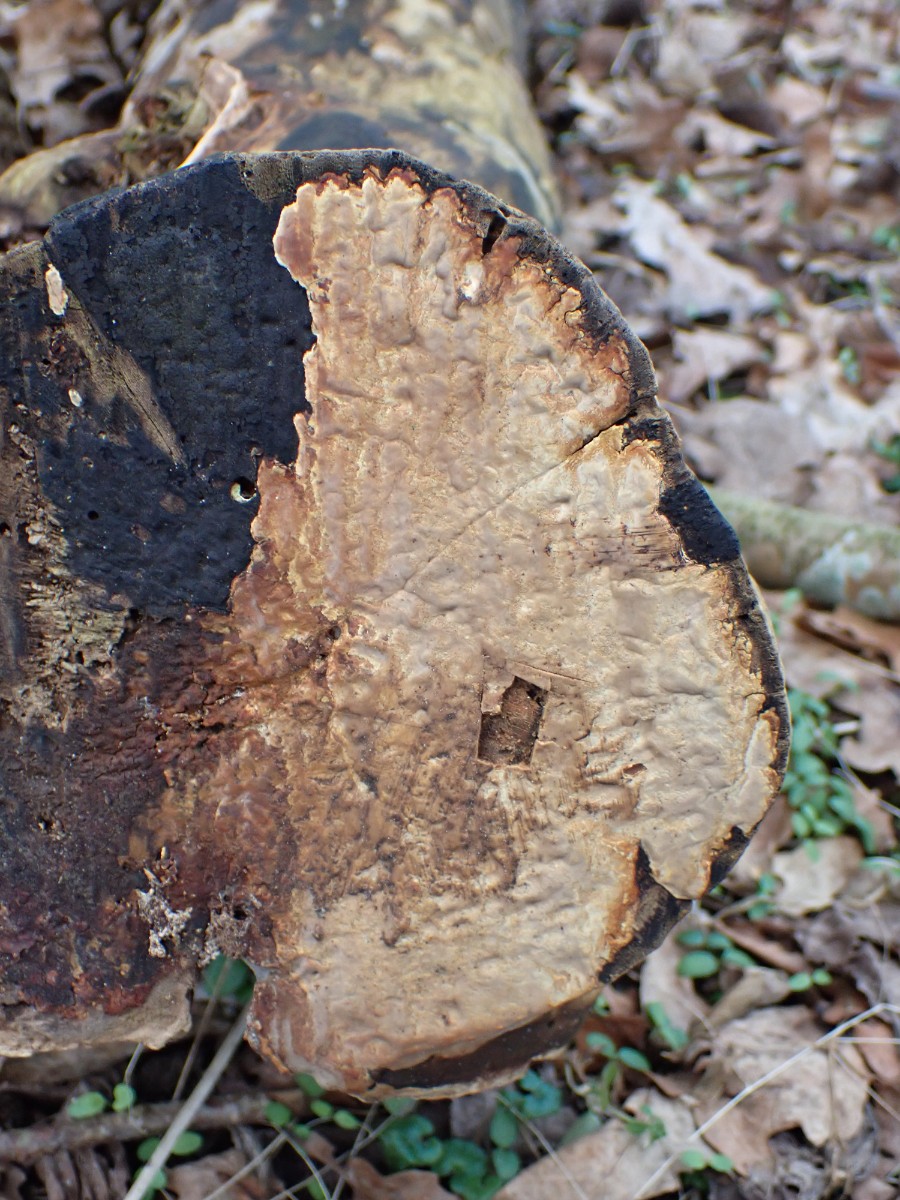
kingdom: Fungi
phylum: Basidiomycota
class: Agaricomycetes
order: Russulales
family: Peniophoraceae
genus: Scytinostroma
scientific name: Scytinostroma hemidichophyticum
